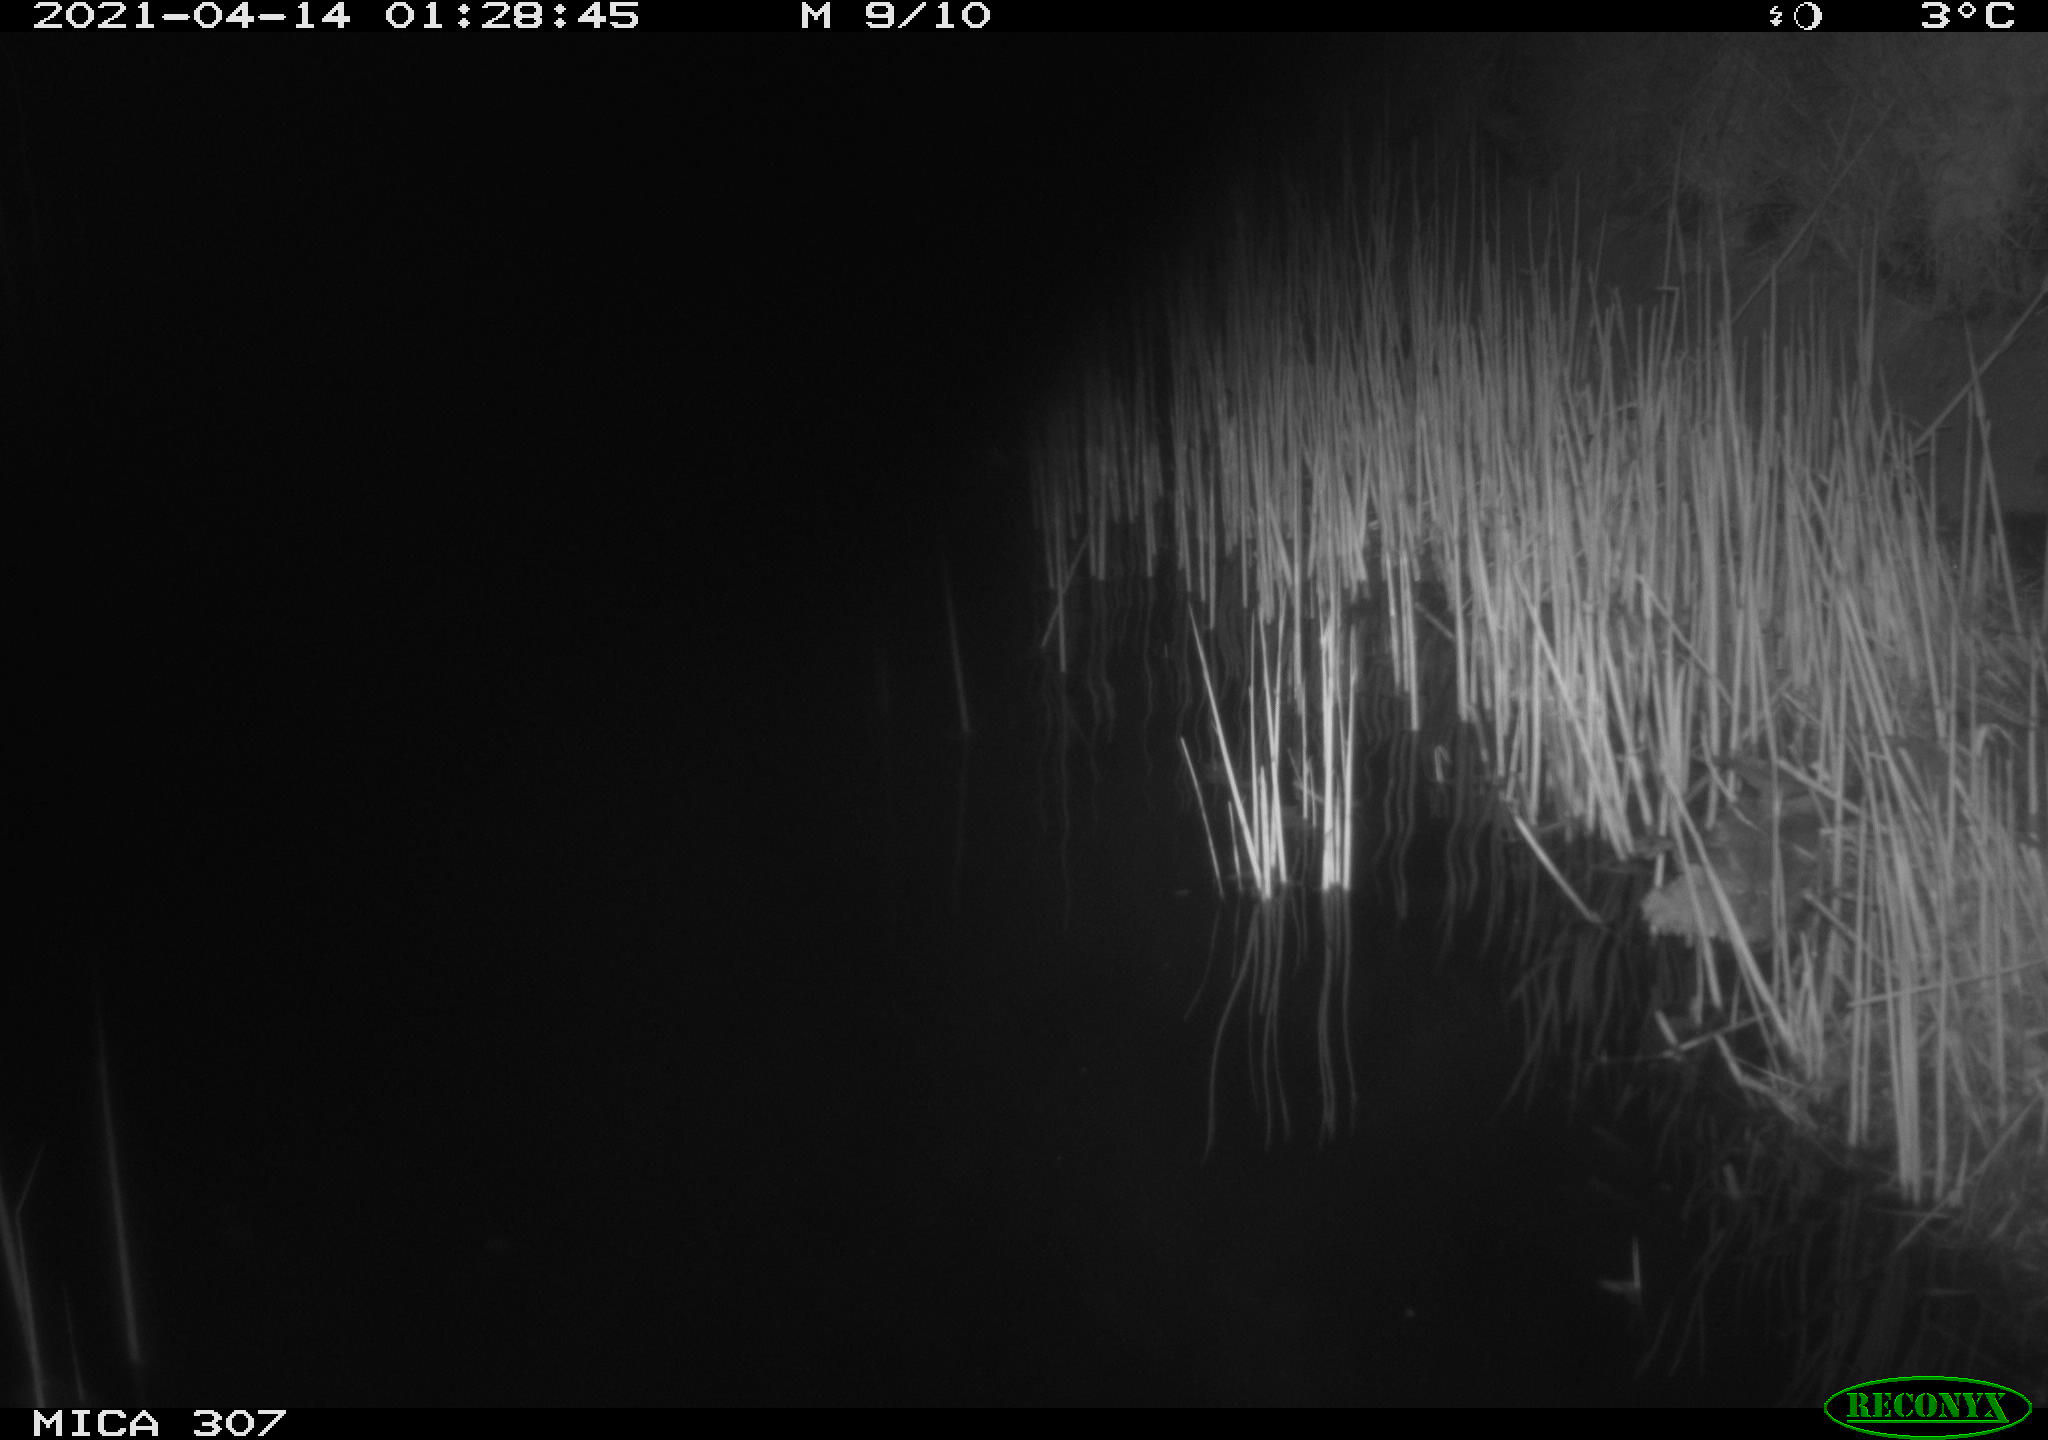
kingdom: Animalia
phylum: Chordata
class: Aves
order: Gruiformes
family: Rallidae
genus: Gallinula
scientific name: Gallinula chloropus
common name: Common moorhen
